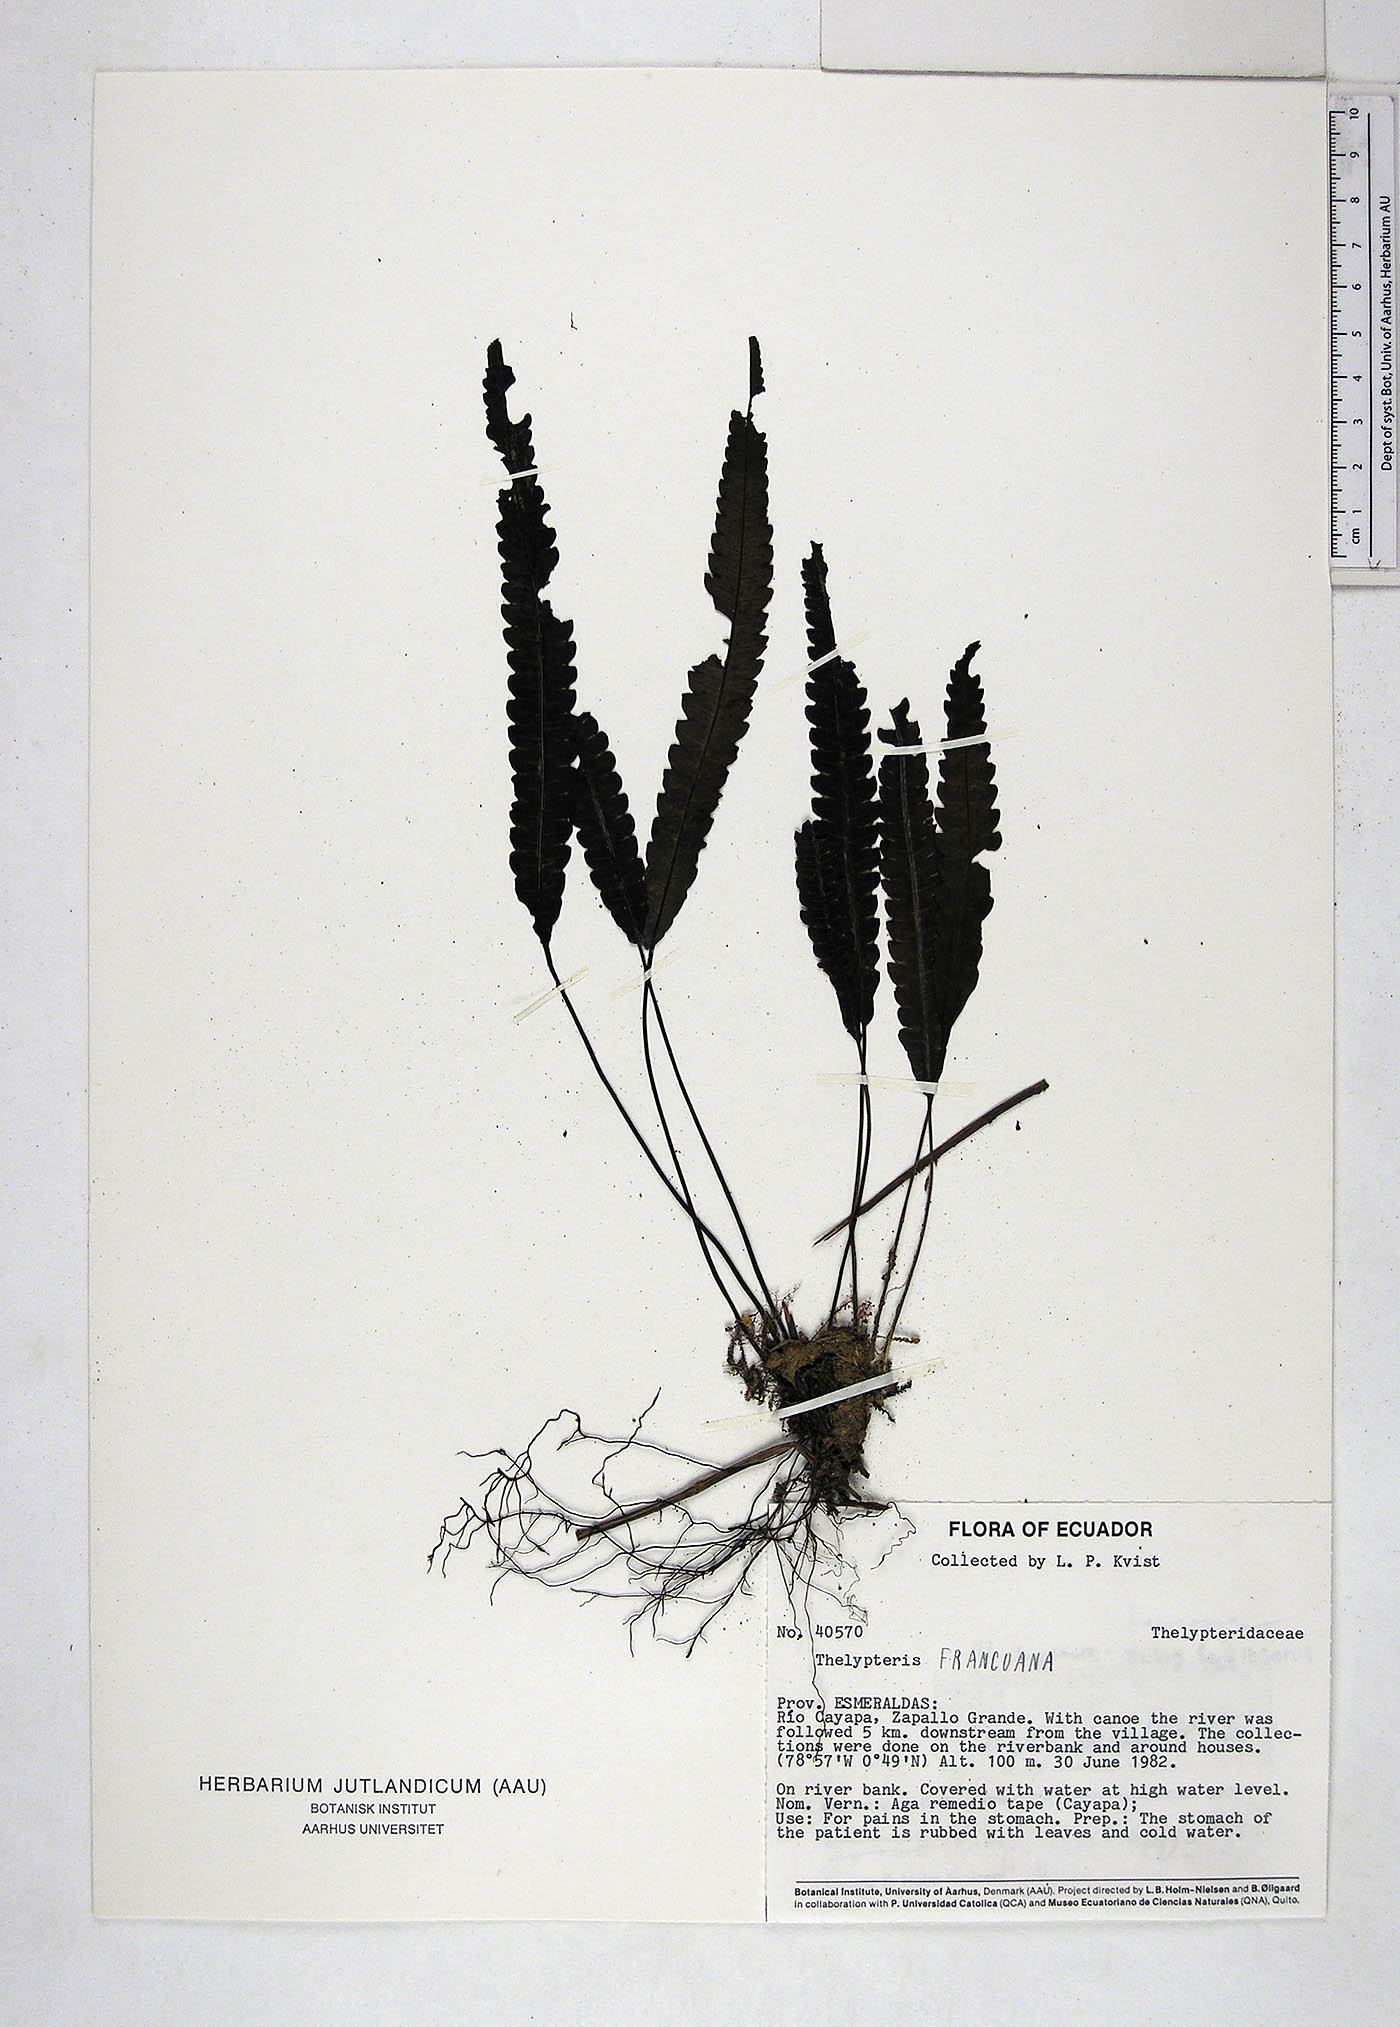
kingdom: Plantae
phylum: Tracheophyta
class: Polypodiopsida
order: Polypodiales
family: Thelypteridaceae
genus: Goniopteris
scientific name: Goniopteris francoana
